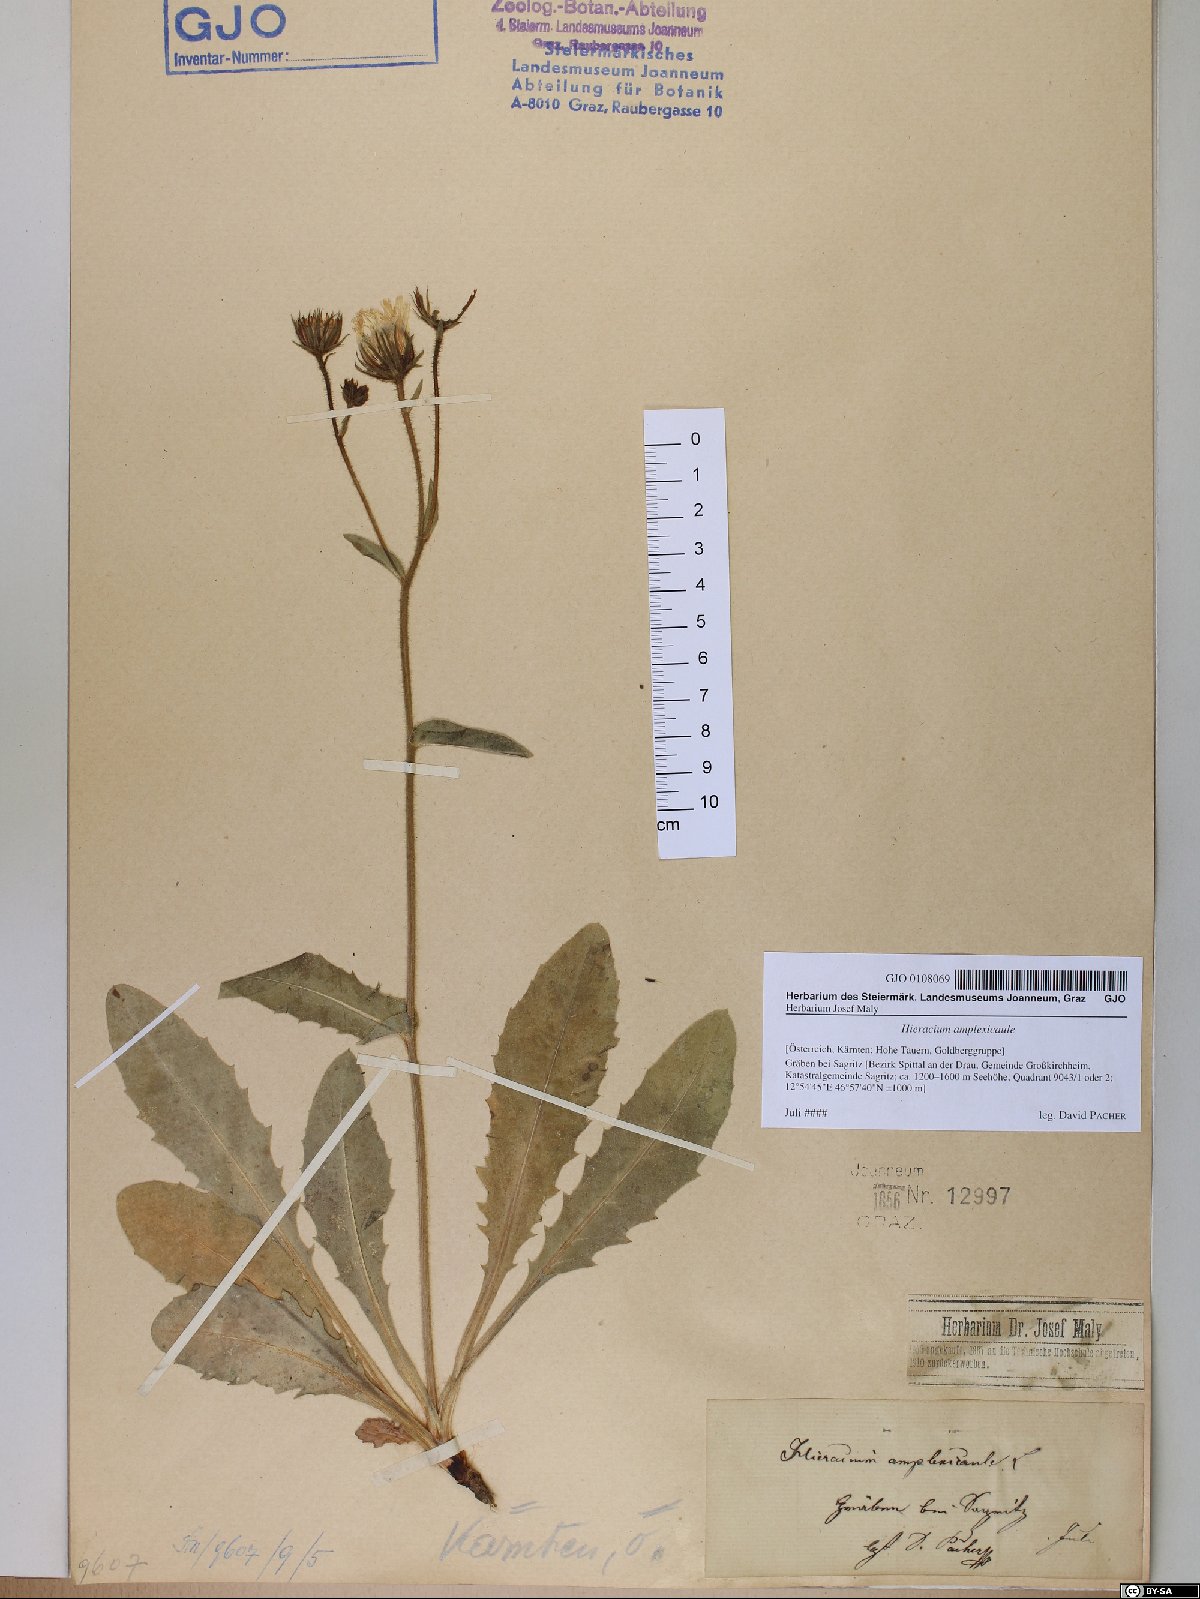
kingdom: Plantae
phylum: Tracheophyta
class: Magnoliopsida
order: Asterales
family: Asteraceae
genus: Hieracium
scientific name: Hieracium amplexicaule
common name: Sticky hawkweed
